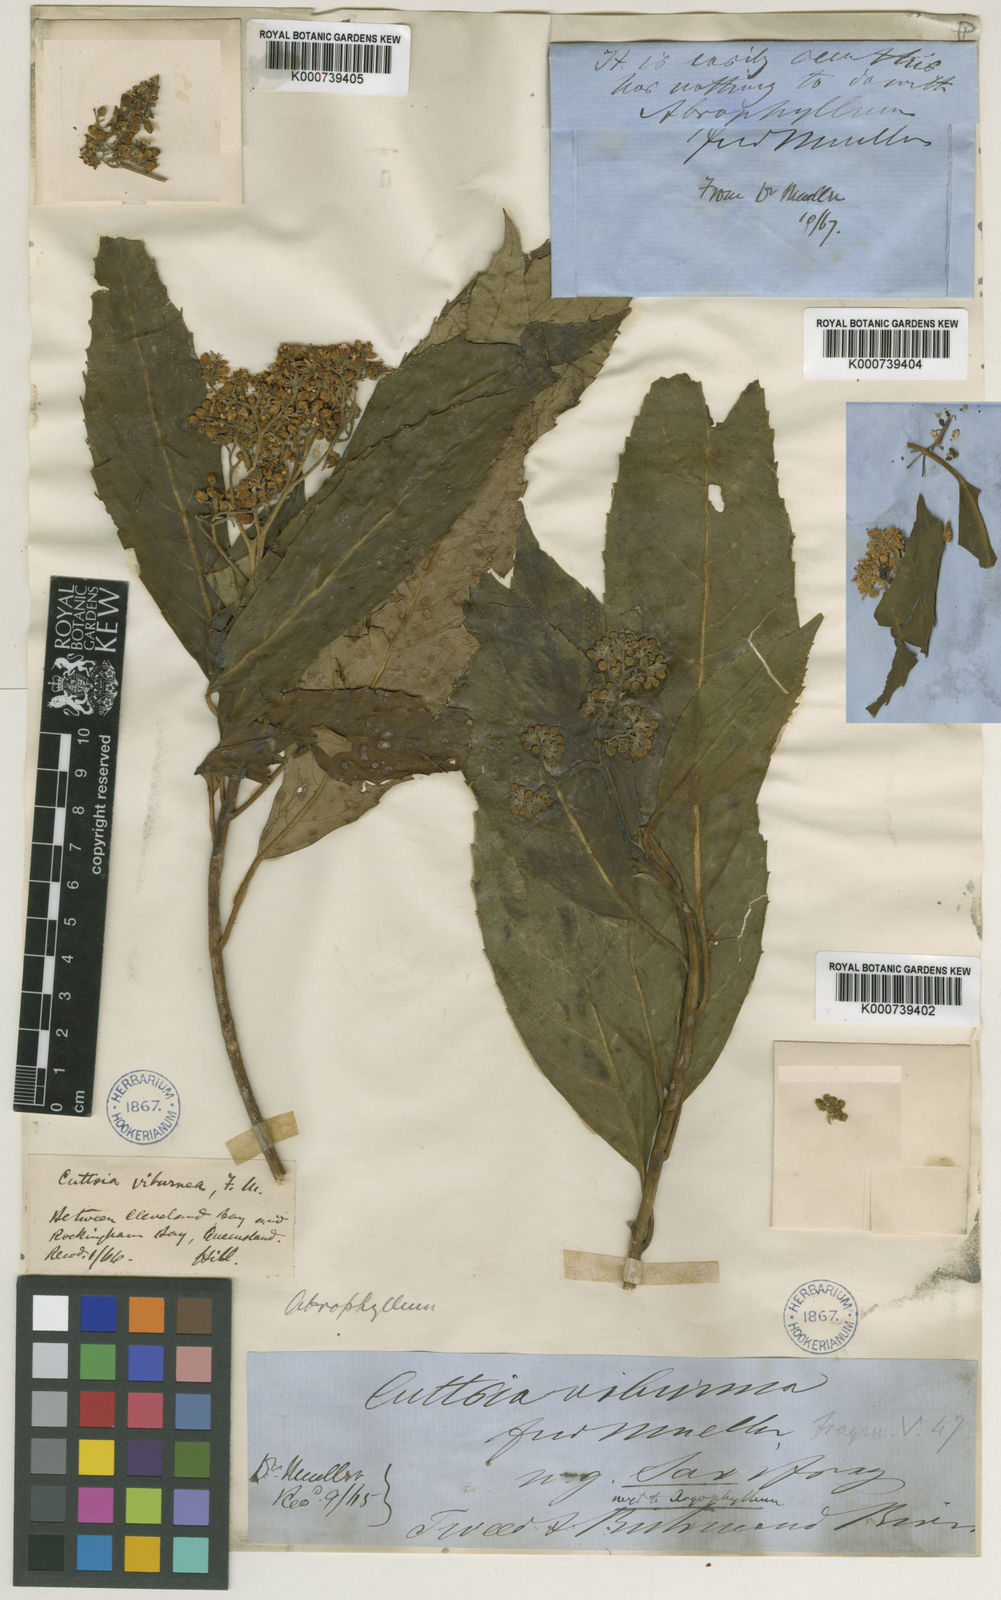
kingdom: Plantae
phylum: Tracheophyta
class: Magnoliopsida
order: Asterales
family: Rousseaceae
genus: Cuttsia
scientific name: Cuttsia viburnea
